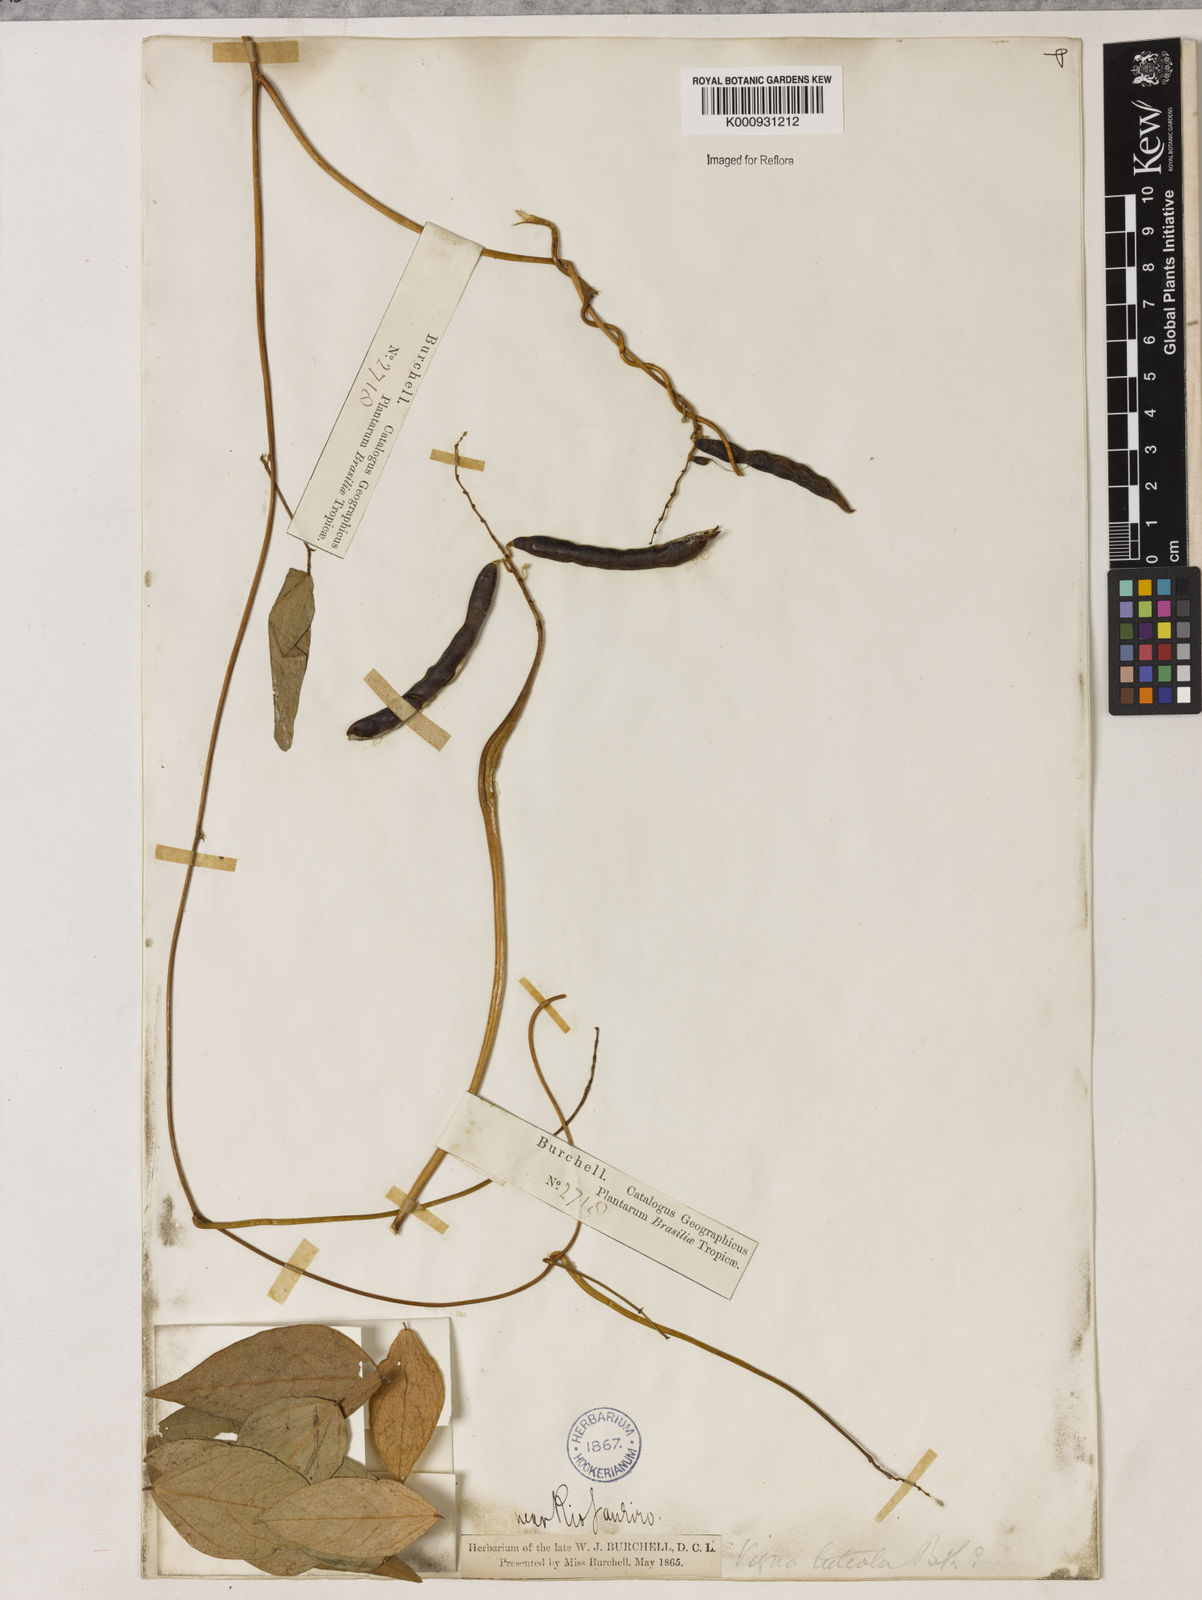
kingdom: Plantae
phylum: Tracheophyta
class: Magnoliopsida
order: Fabales
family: Fabaceae
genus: Vigna
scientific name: Vigna luteola
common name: Hairypod cowpea
